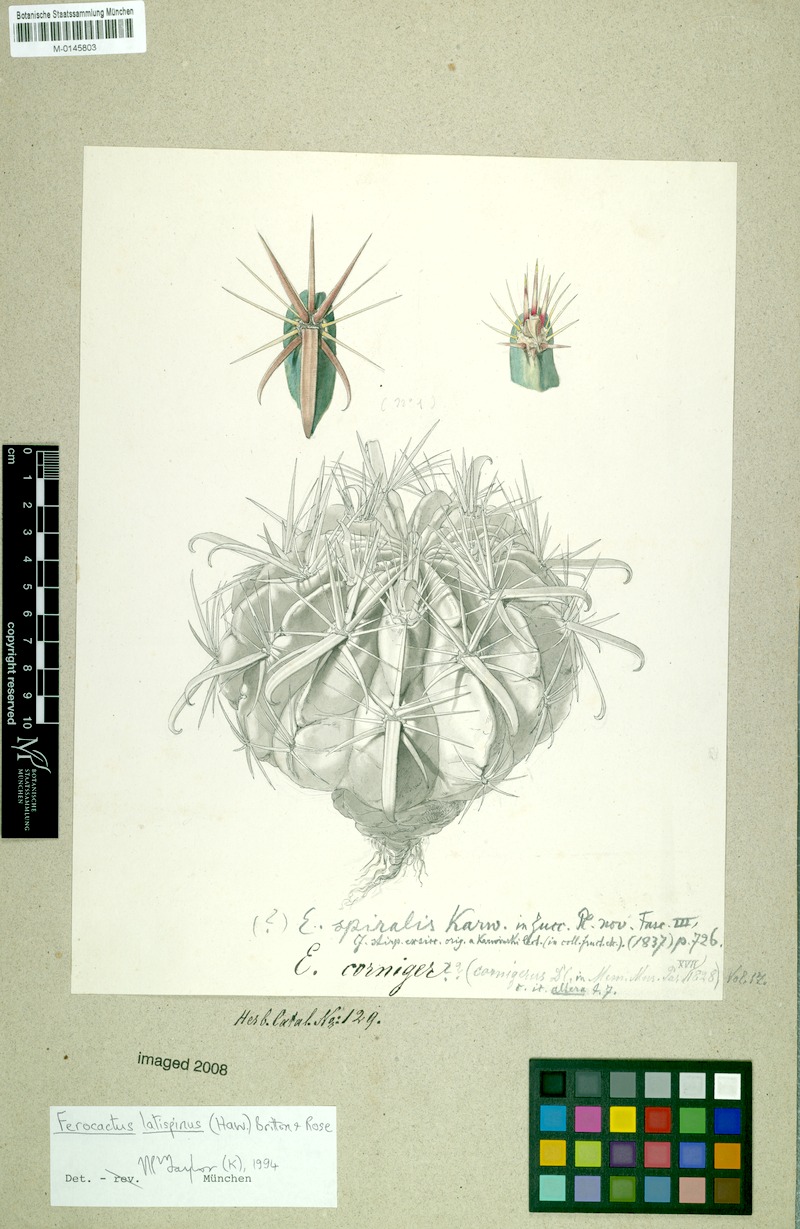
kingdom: Plantae
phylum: Tracheophyta
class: Magnoliopsida
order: Caryophyllales
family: Cactaceae
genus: Ferocactus
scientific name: Ferocactus latispinus
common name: Devil's-tongue cactus
